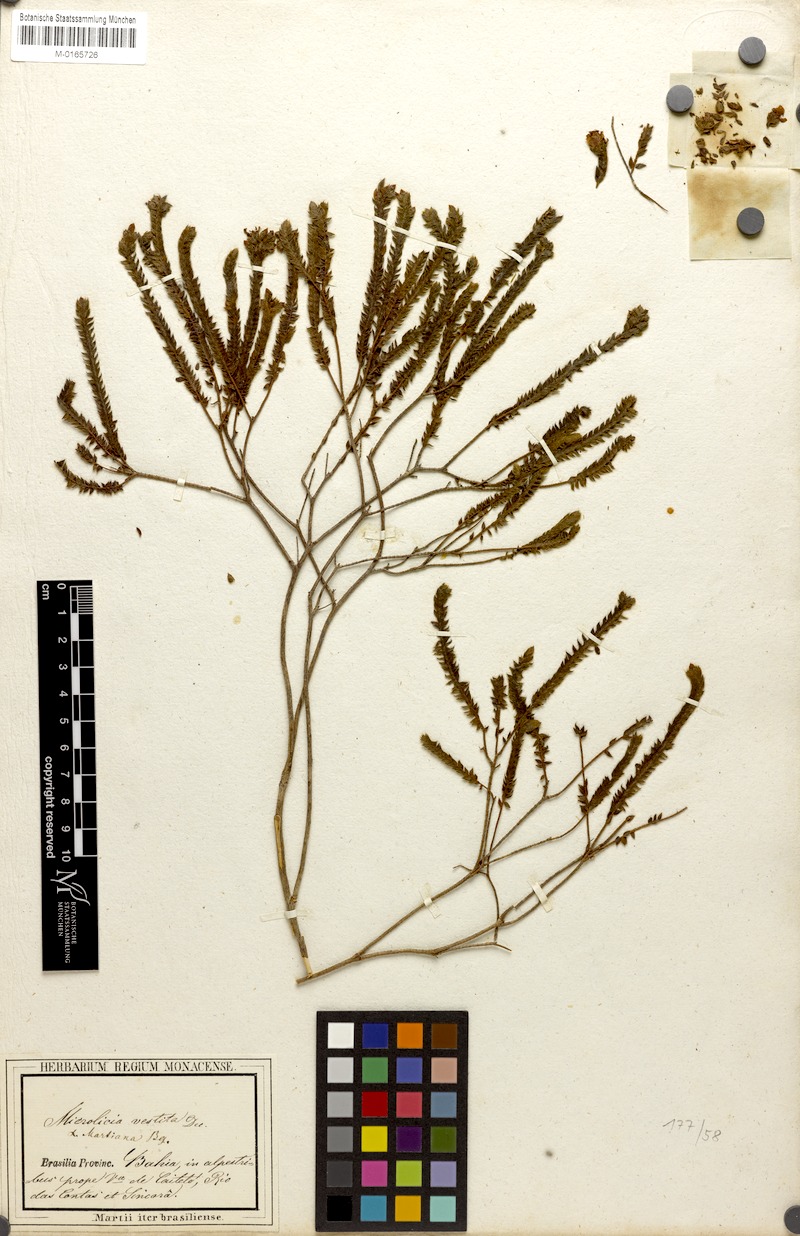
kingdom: Plantae
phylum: Tracheophyta
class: Magnoliopsida
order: Myrtales
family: Melastomataceae
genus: Microlicia
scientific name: Microlicia vestita
